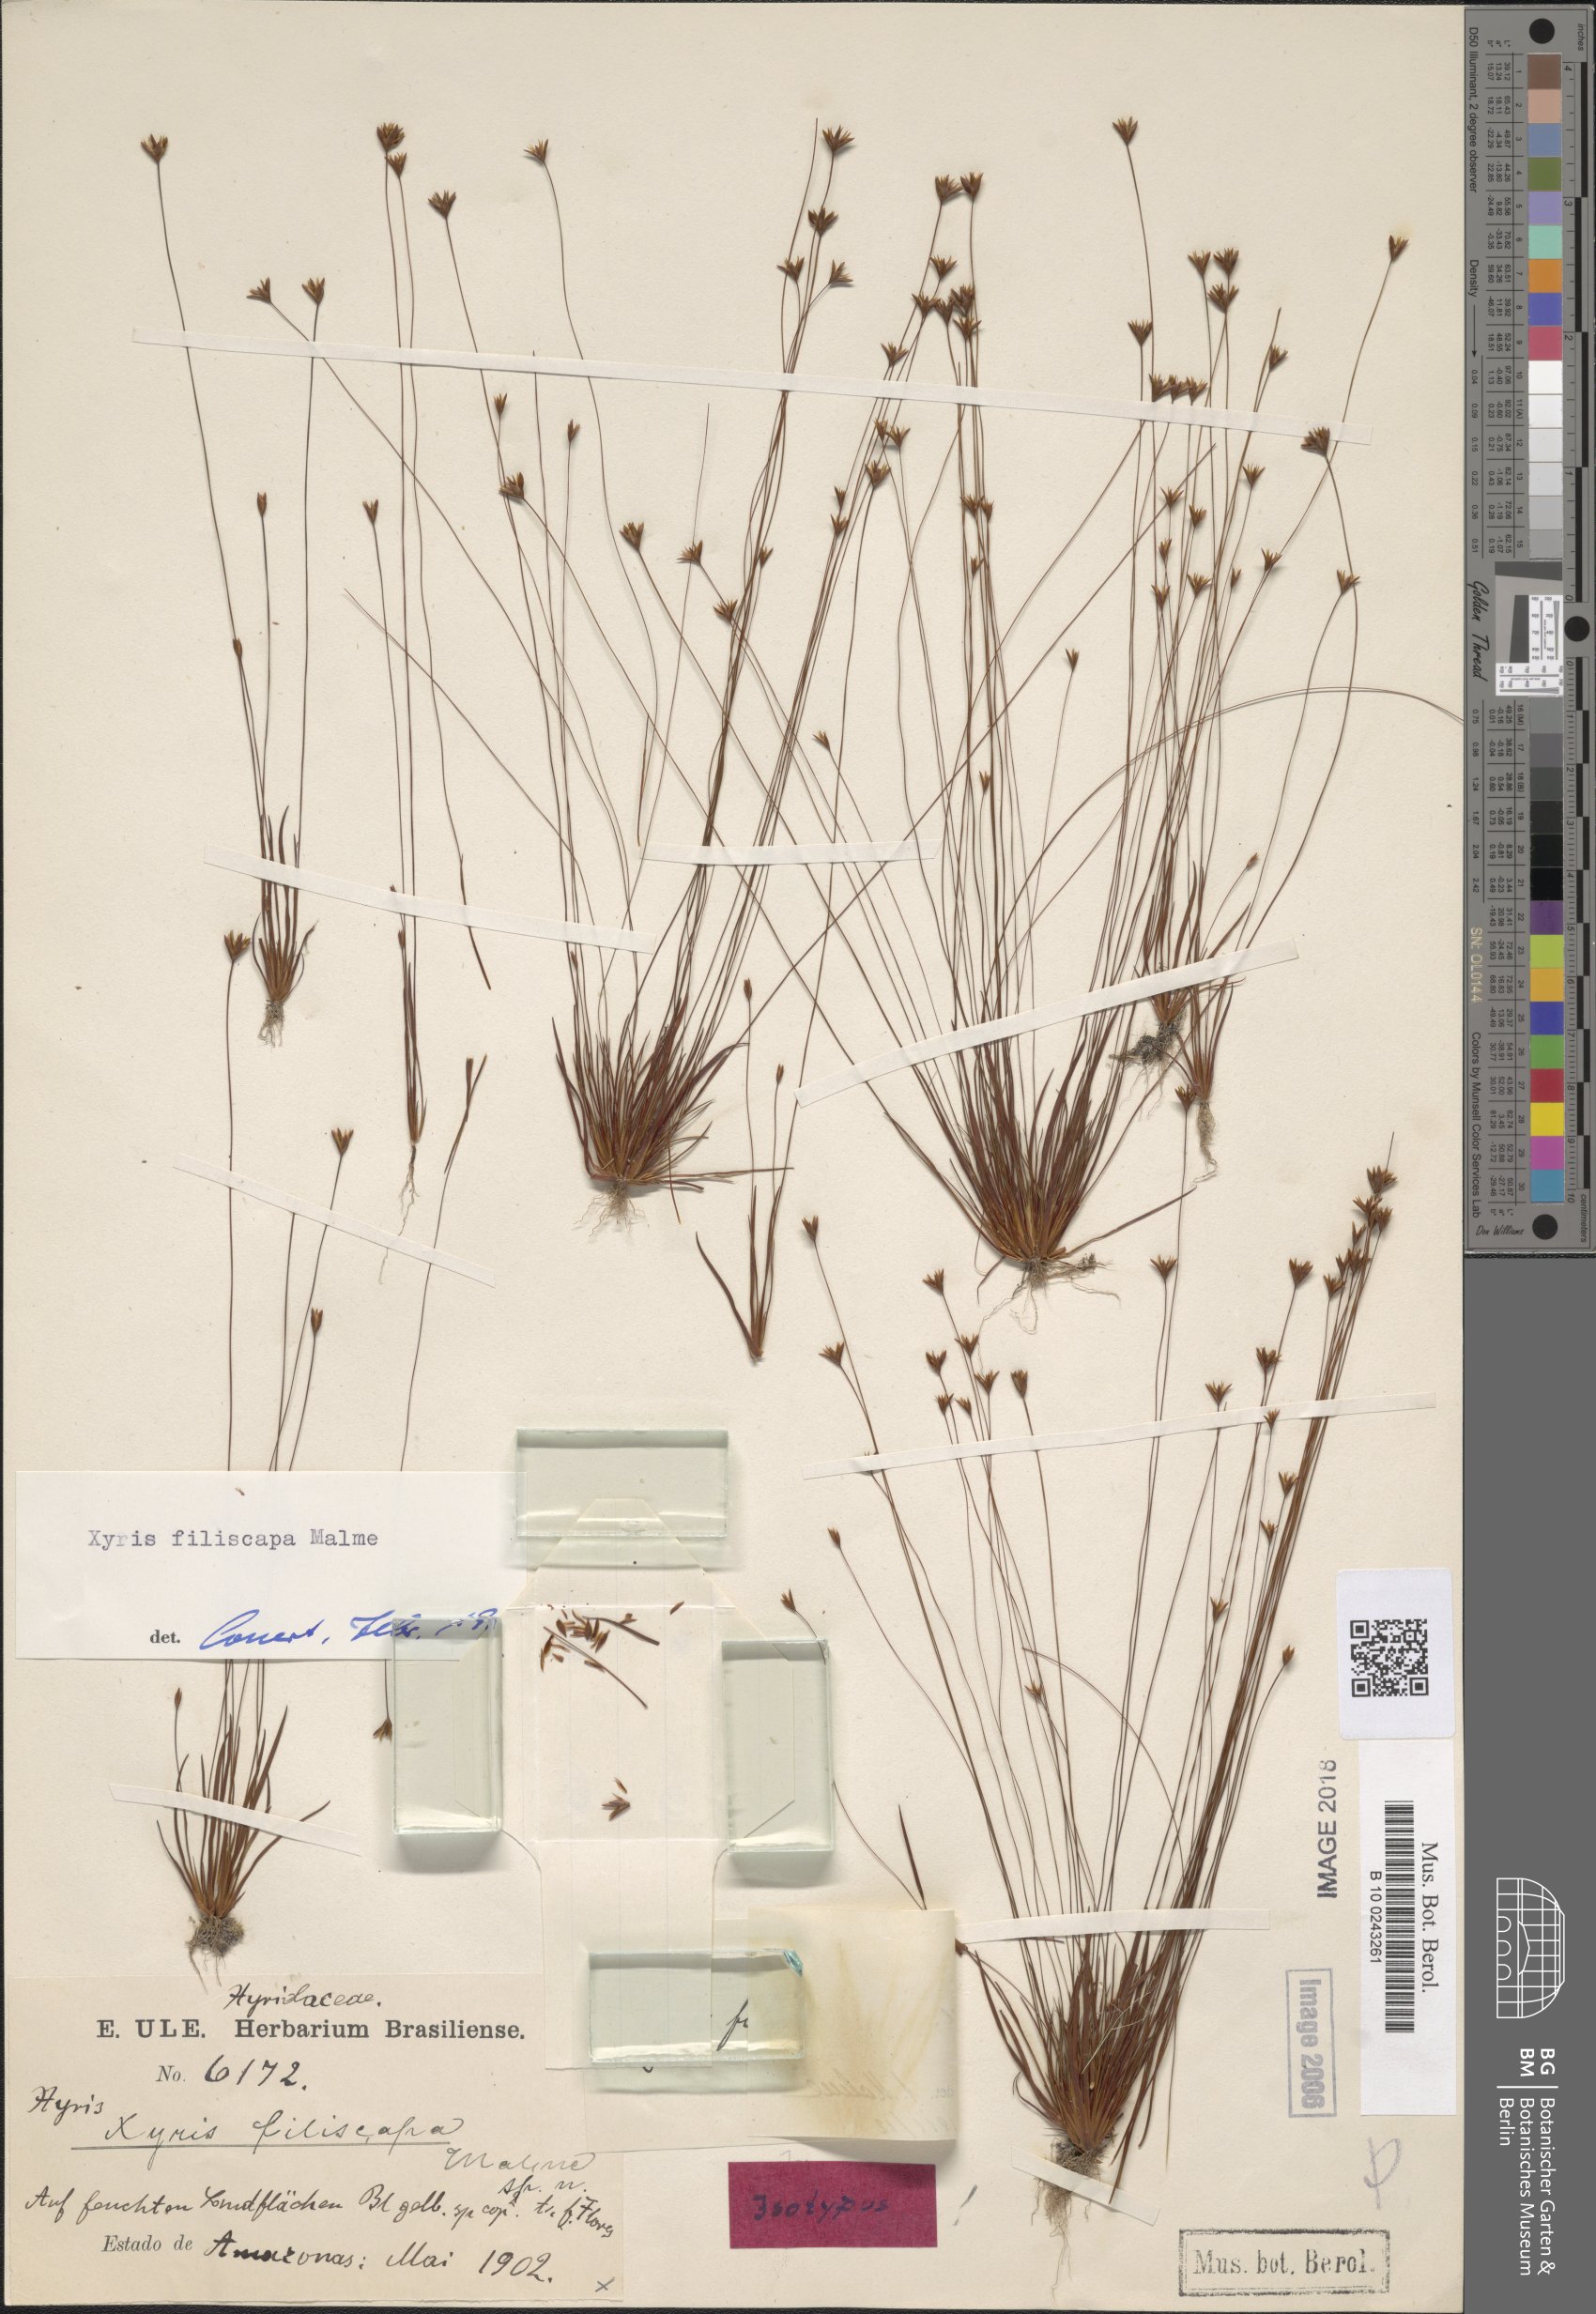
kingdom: Plantae
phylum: Tracheophyta
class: Liliopsida
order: Poales
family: Xyridaceae
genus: Xyris
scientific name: Xyris guianensis
